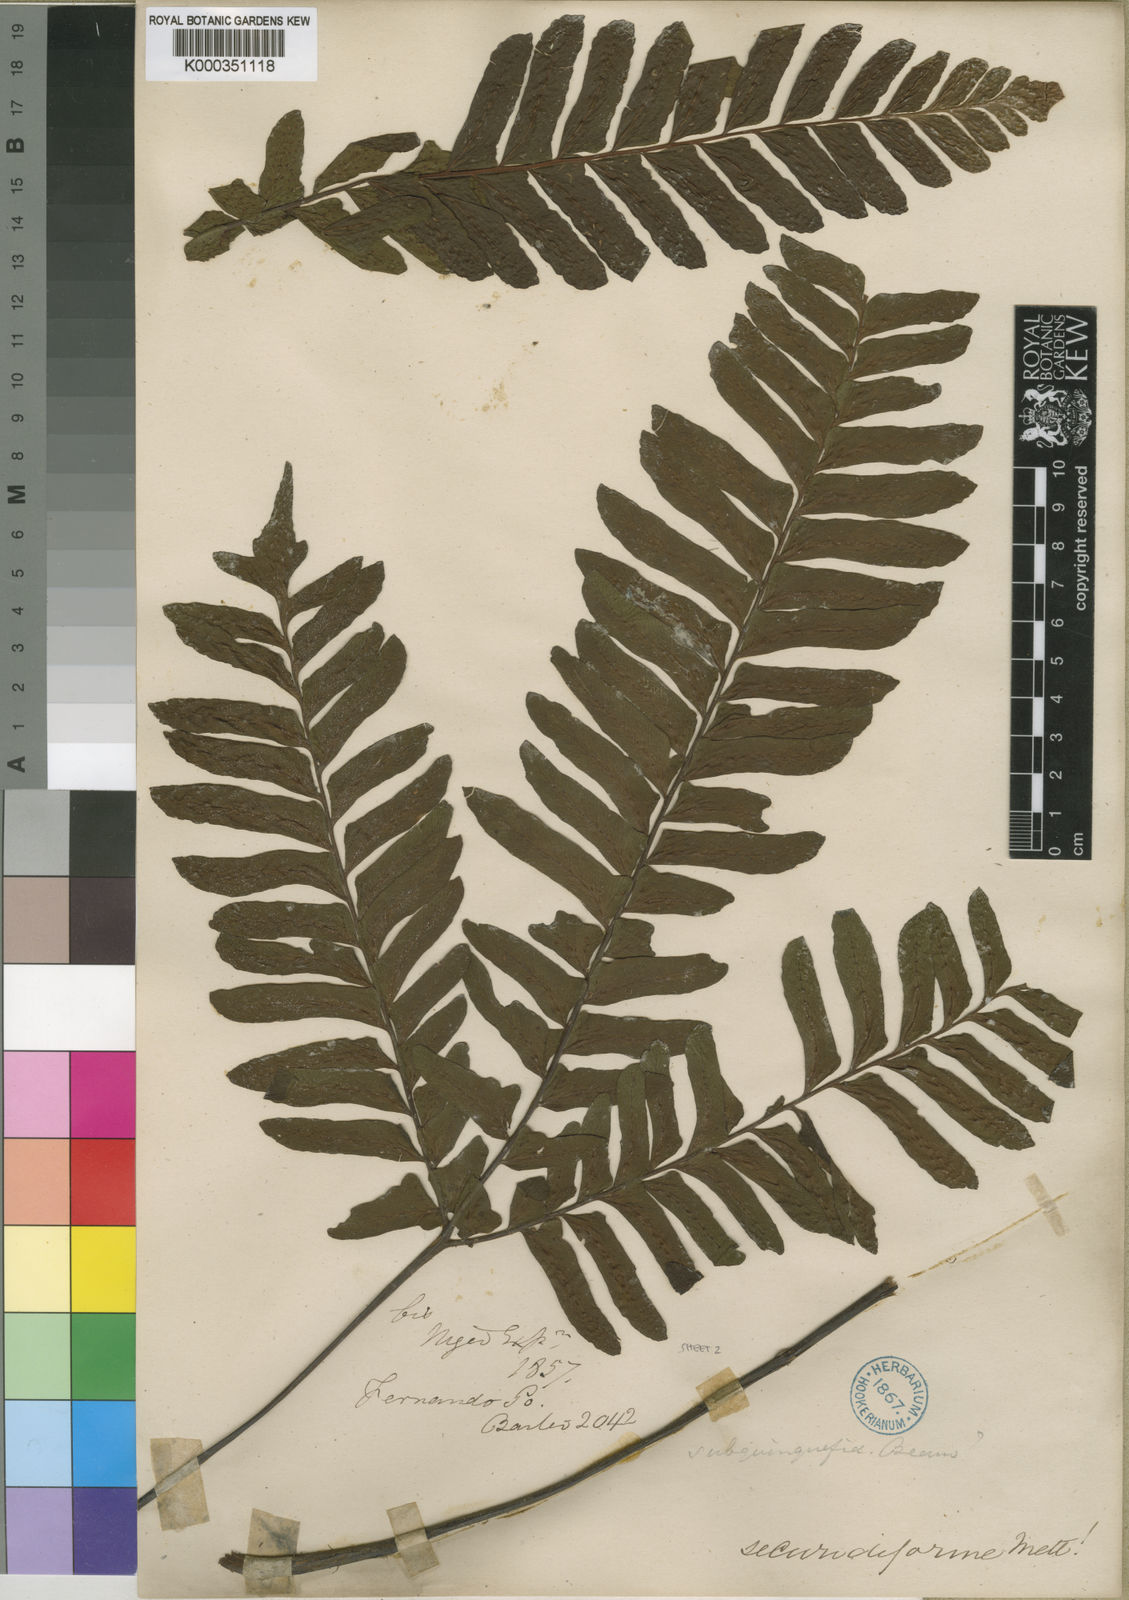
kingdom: Plantae
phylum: Tracheophyta
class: Polypodiopsida
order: Polypodiales
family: Tectariaceae
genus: Triplophyllum
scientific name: Triplophyllum securidiforme
